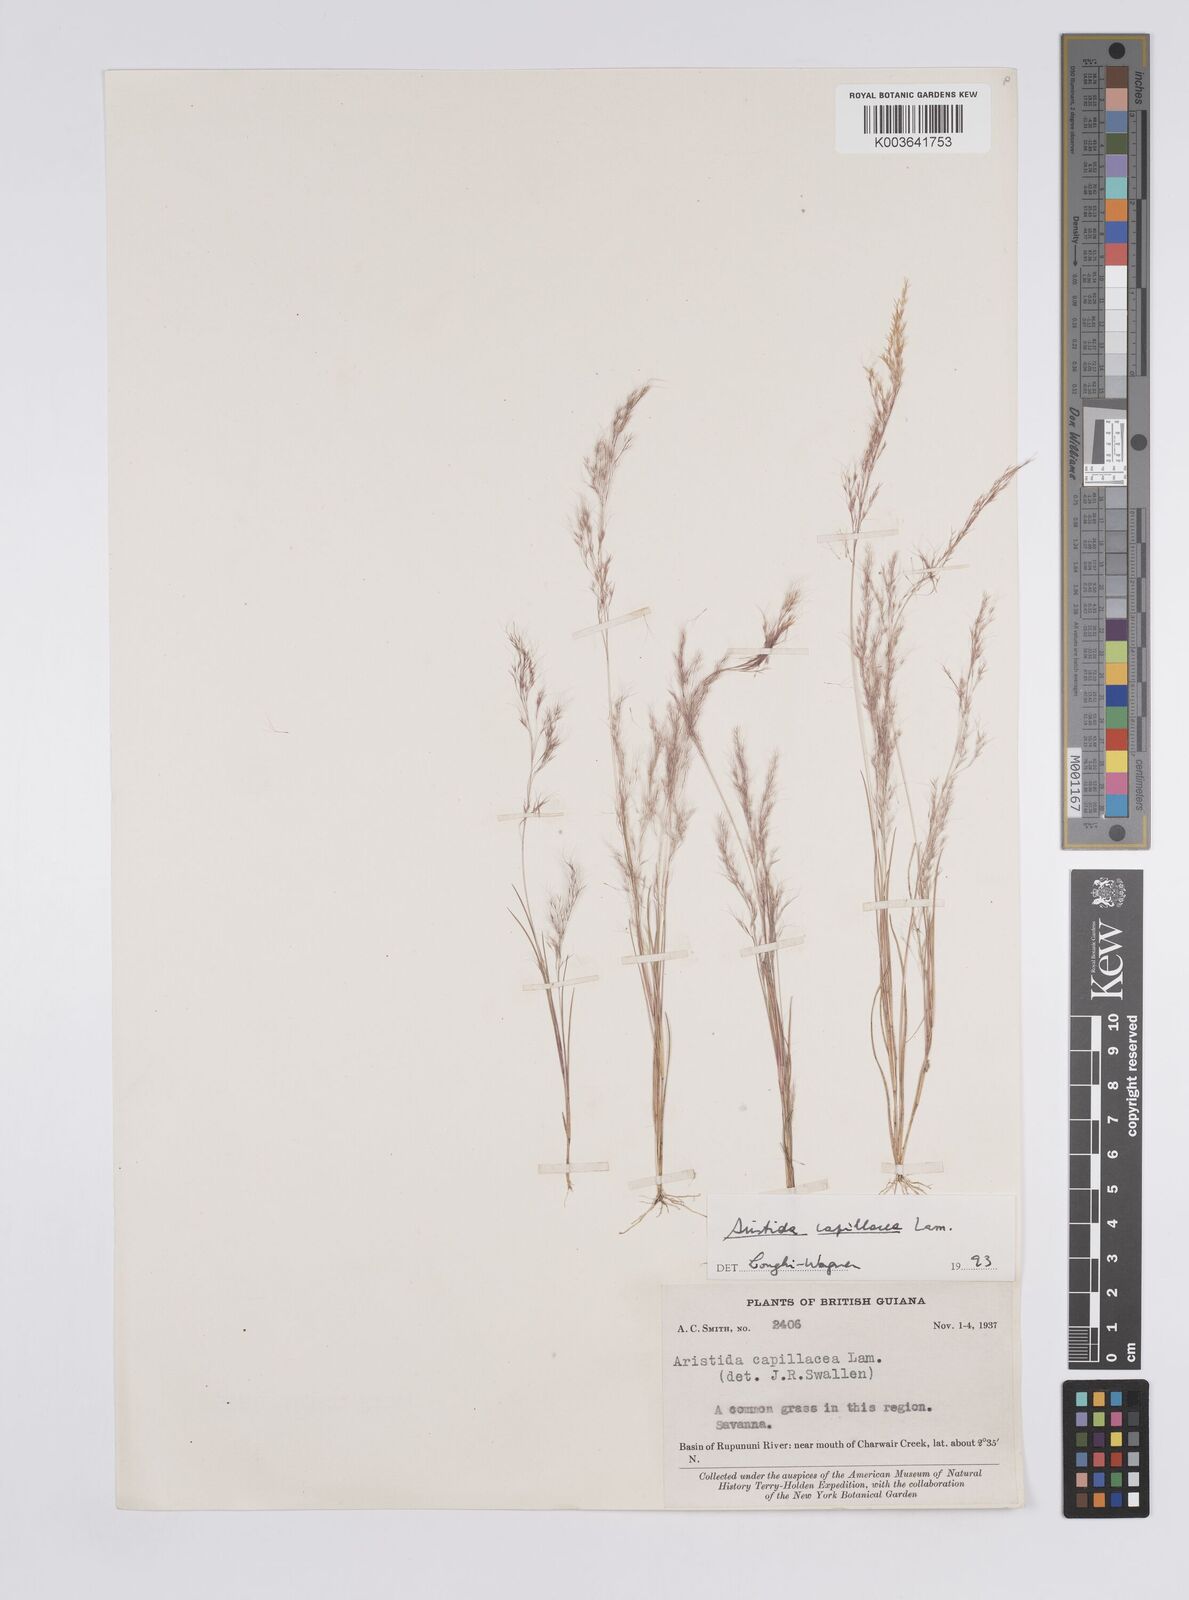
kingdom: Plantae
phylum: Tracheophyta
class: Liliopsida
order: Poales
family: Poaceae
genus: Aristida
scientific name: Aristida capillacea
